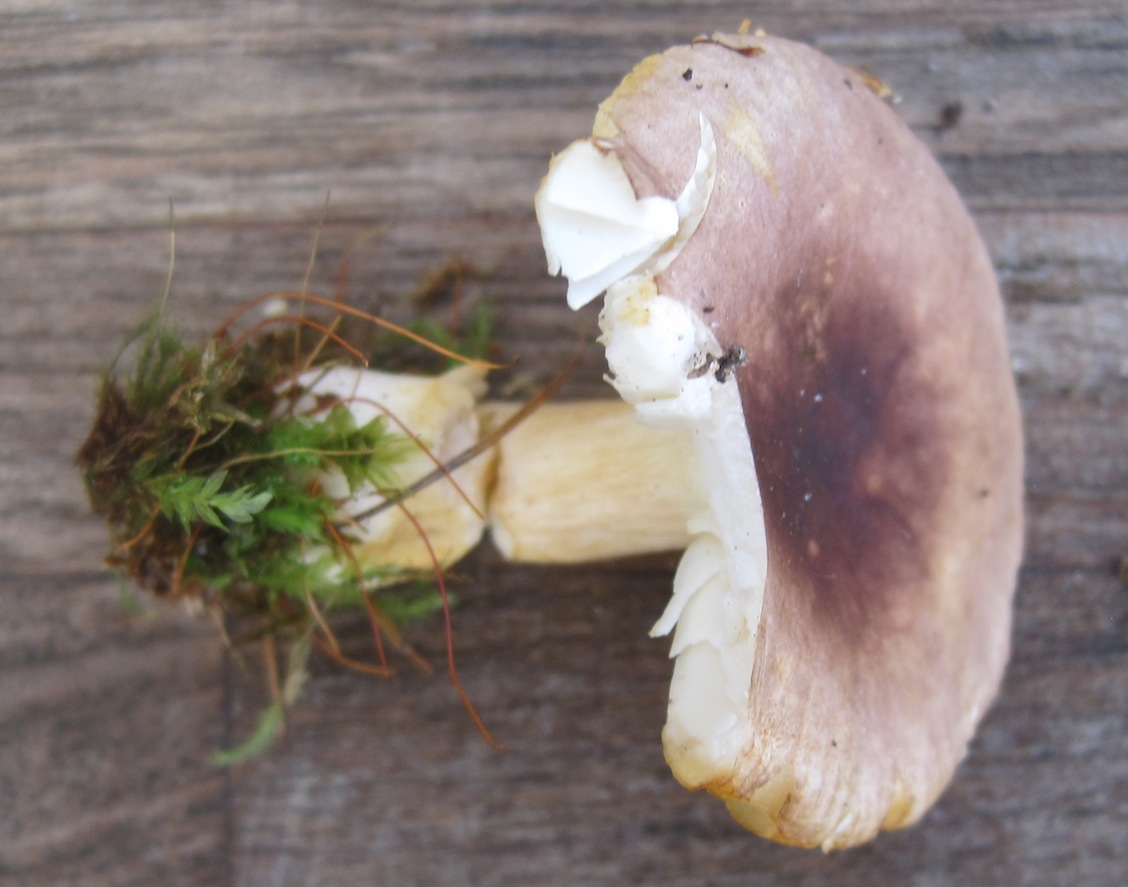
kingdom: Fungi
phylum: Basidiomycota
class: Agaricomycetes
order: Russulales
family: Russulaceae
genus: Russula
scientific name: Russula puellaris
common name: gulstokket skørhat
